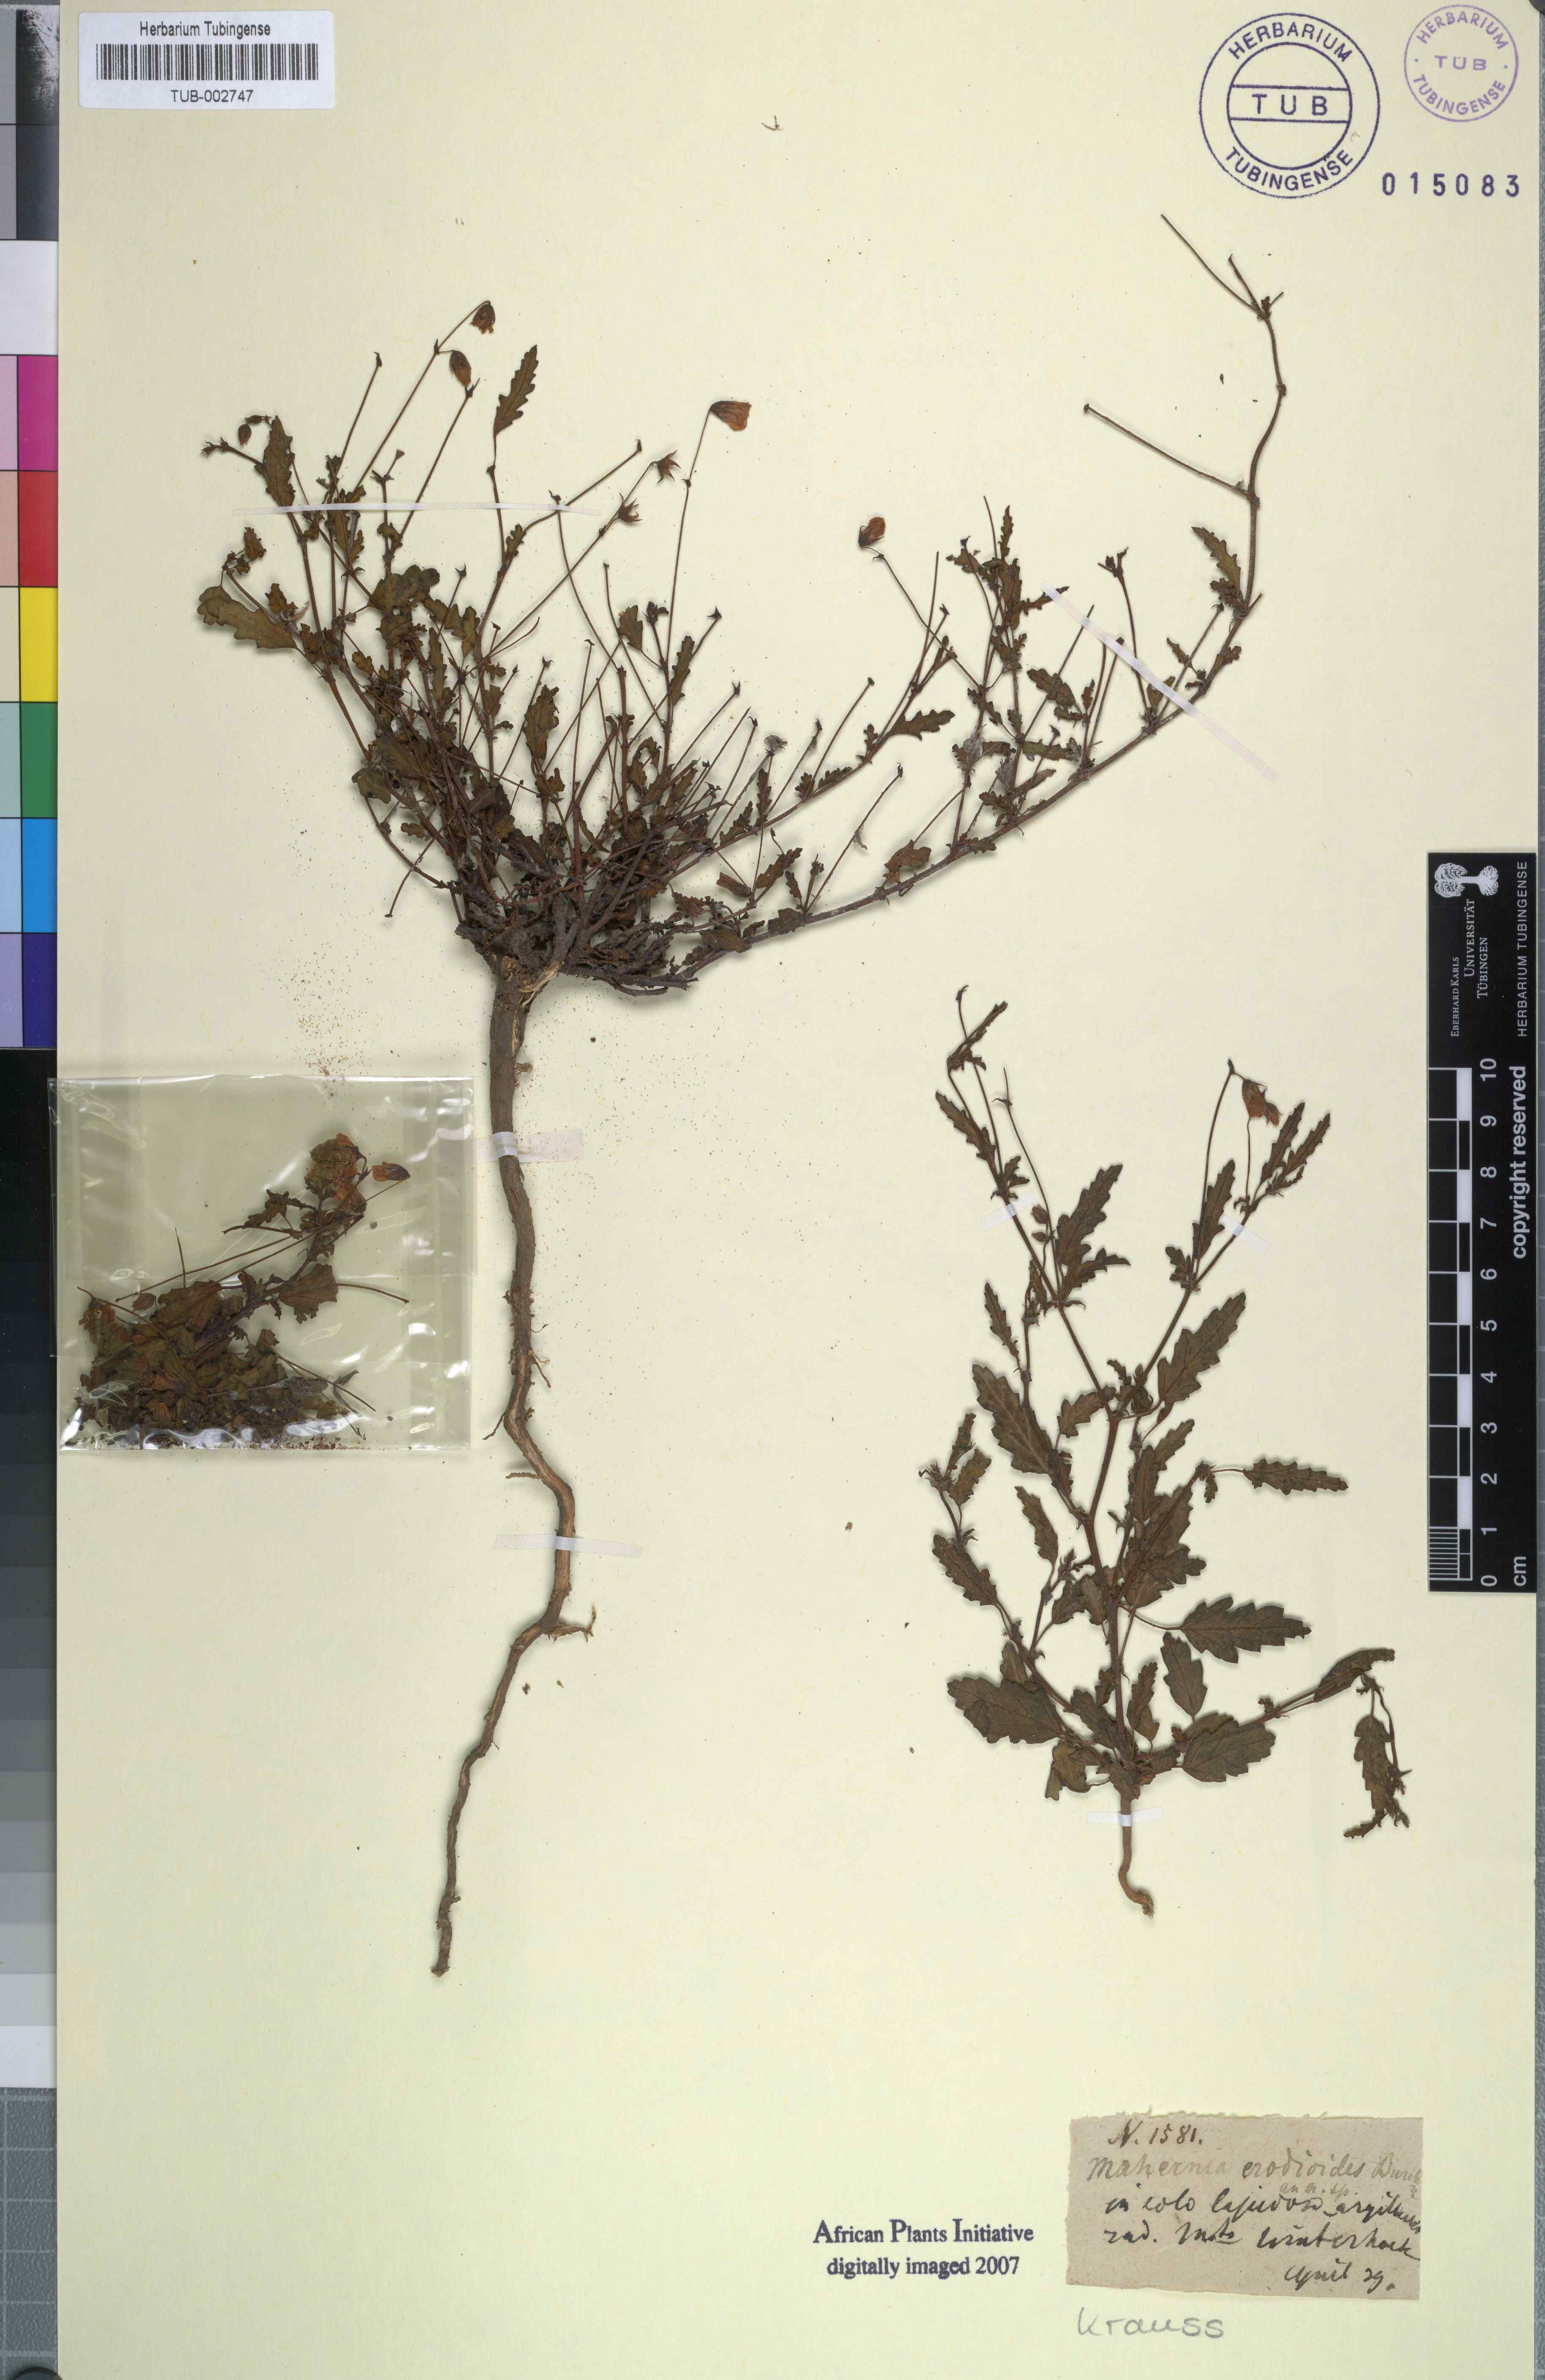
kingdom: Plantae
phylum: Tracheophyta
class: Magnoliopsida
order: Malvales
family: Malvaceae
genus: Hermannia
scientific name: Hermannia erodioides
